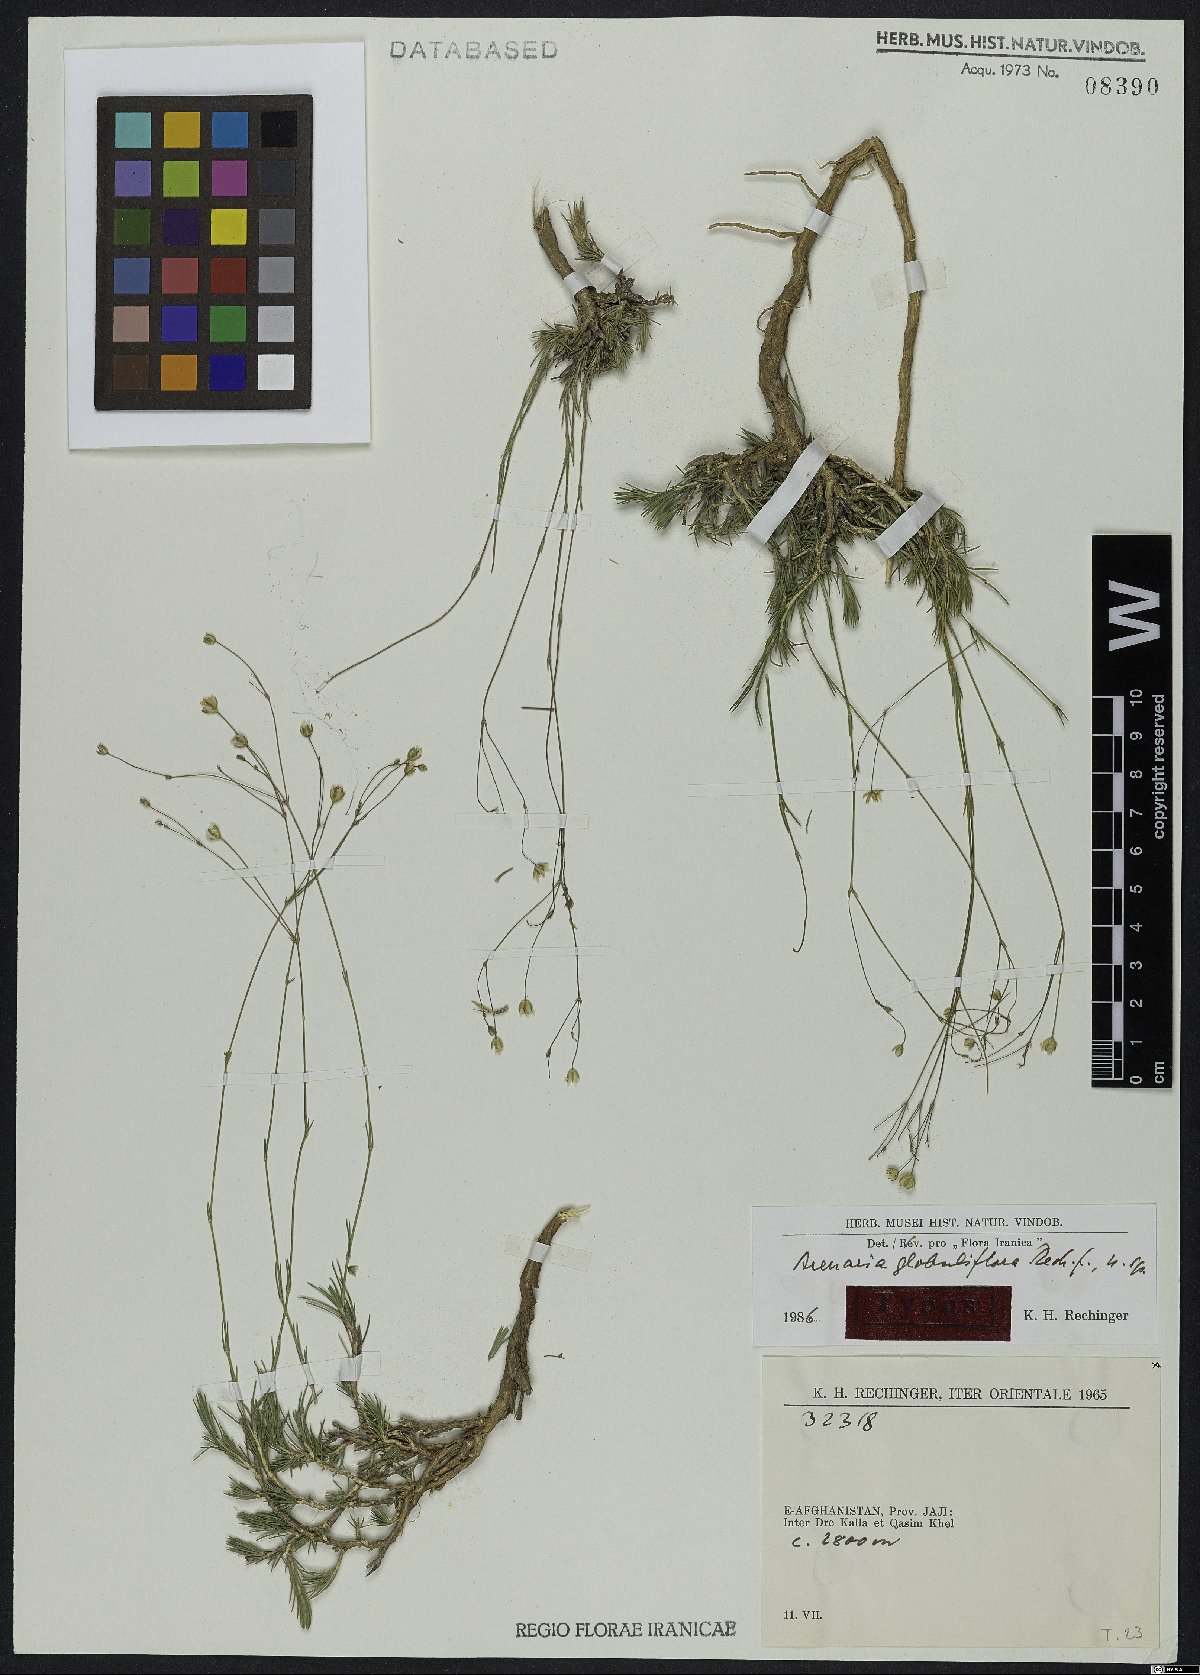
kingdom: Plantae
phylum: Tracheophyta
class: Magnoliopsida
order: Caryophyllales
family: Caryophyllaceae
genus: Eremogone
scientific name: Eremogone globuliflora
